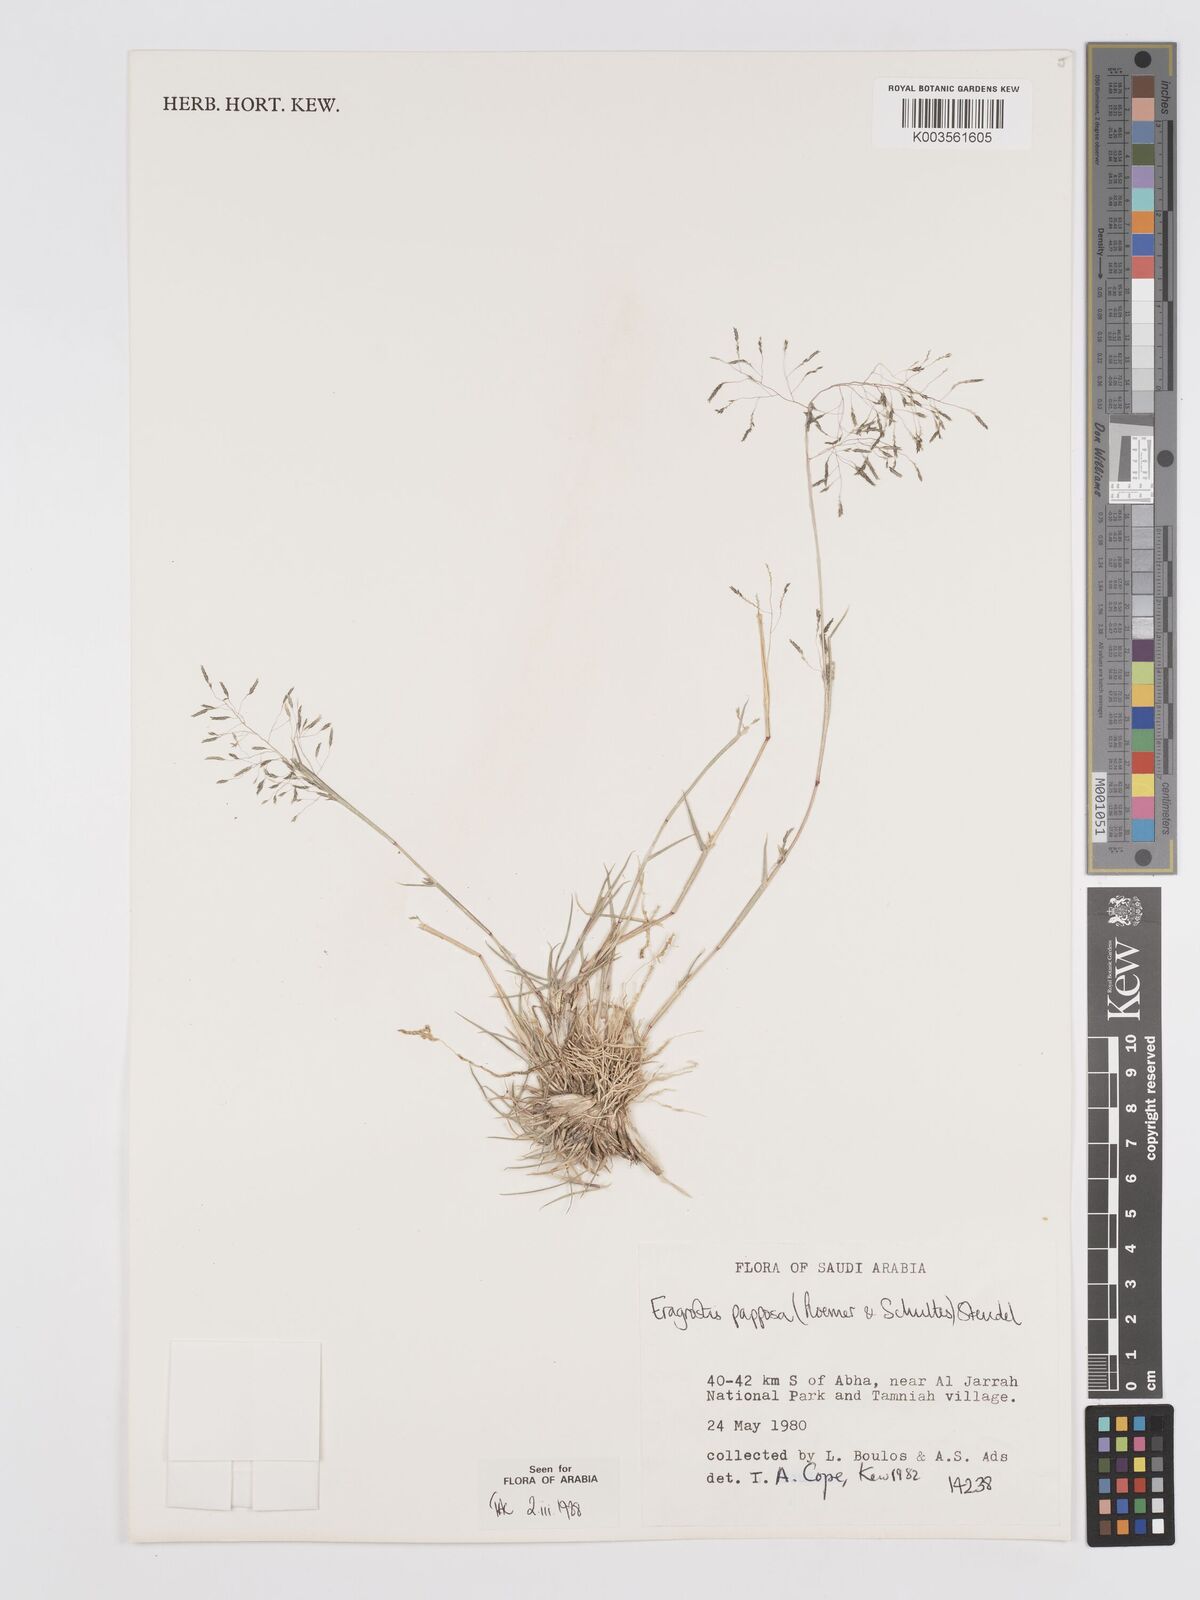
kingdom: Plantae
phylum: Tracheophyta
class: Liliopsida
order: Poales
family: Poaceae
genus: Eragrostis
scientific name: Eragrostis papposa
